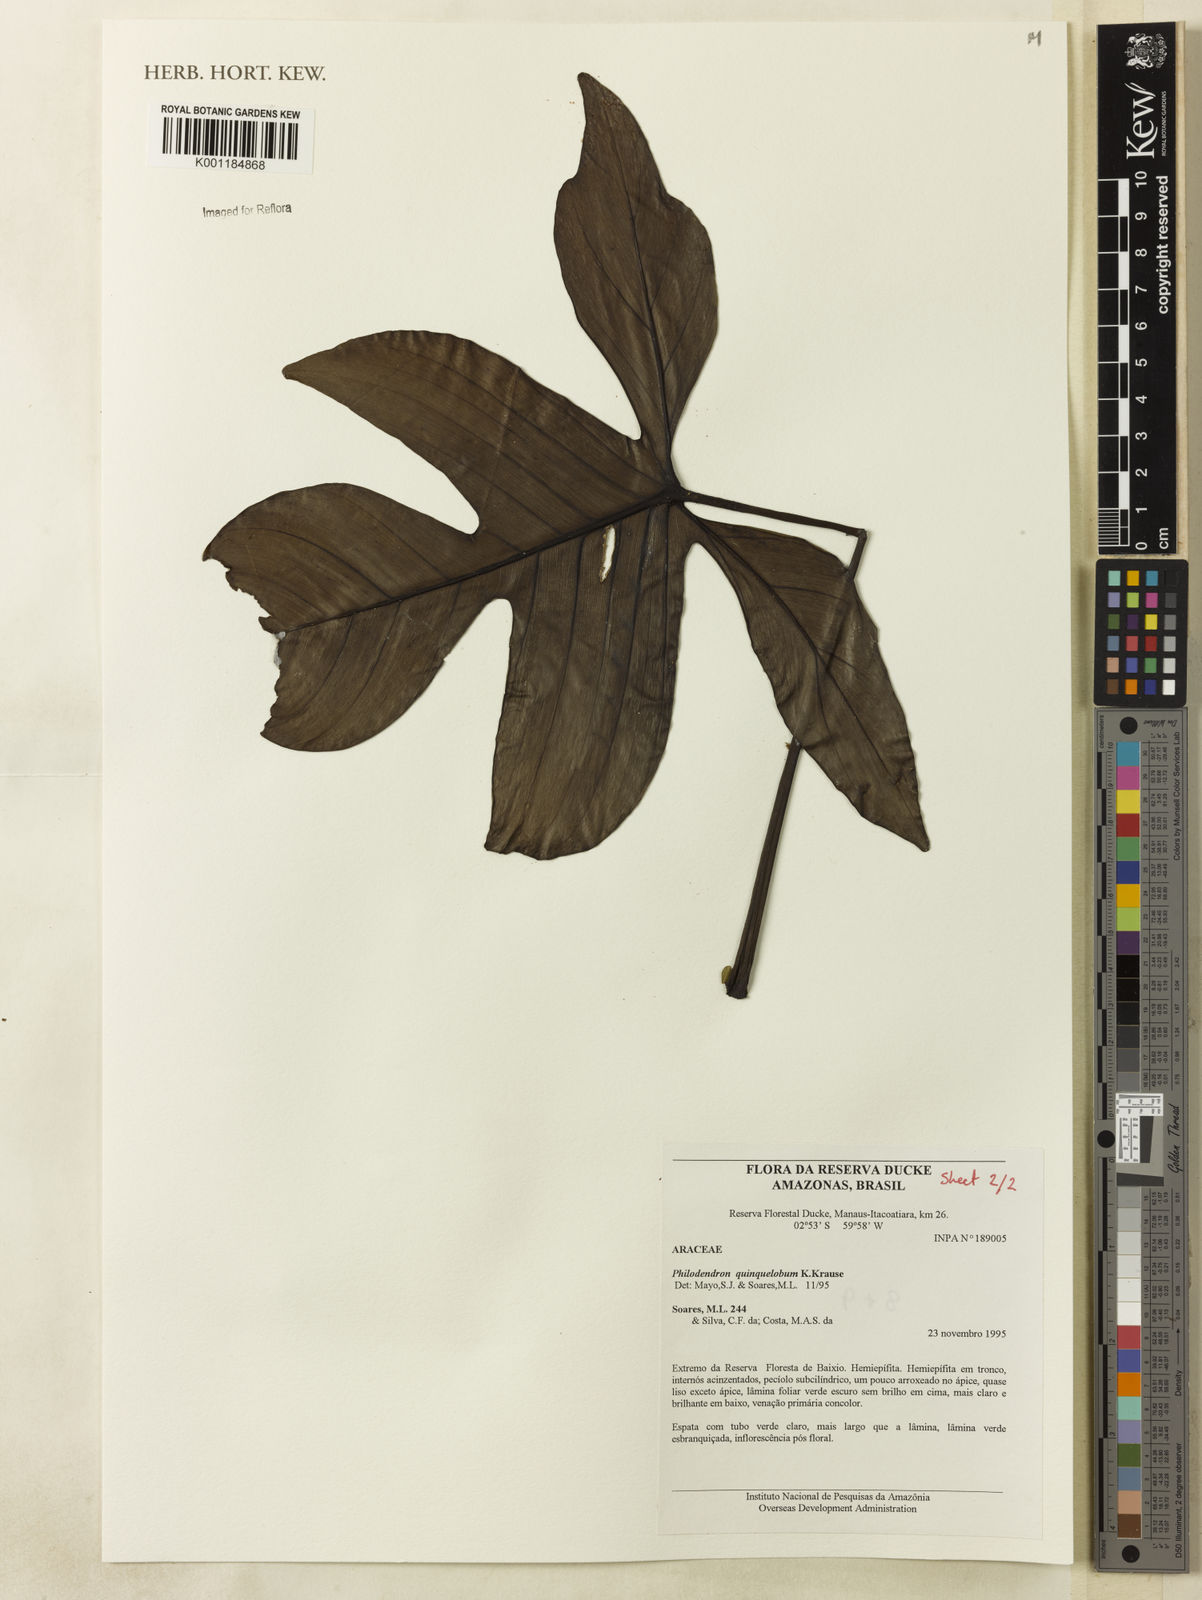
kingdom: Plantae
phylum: Tracheophyta
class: Liliopsida
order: Alismatales
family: Araceae
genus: Philodendron
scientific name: Philodendron quinquelobum
